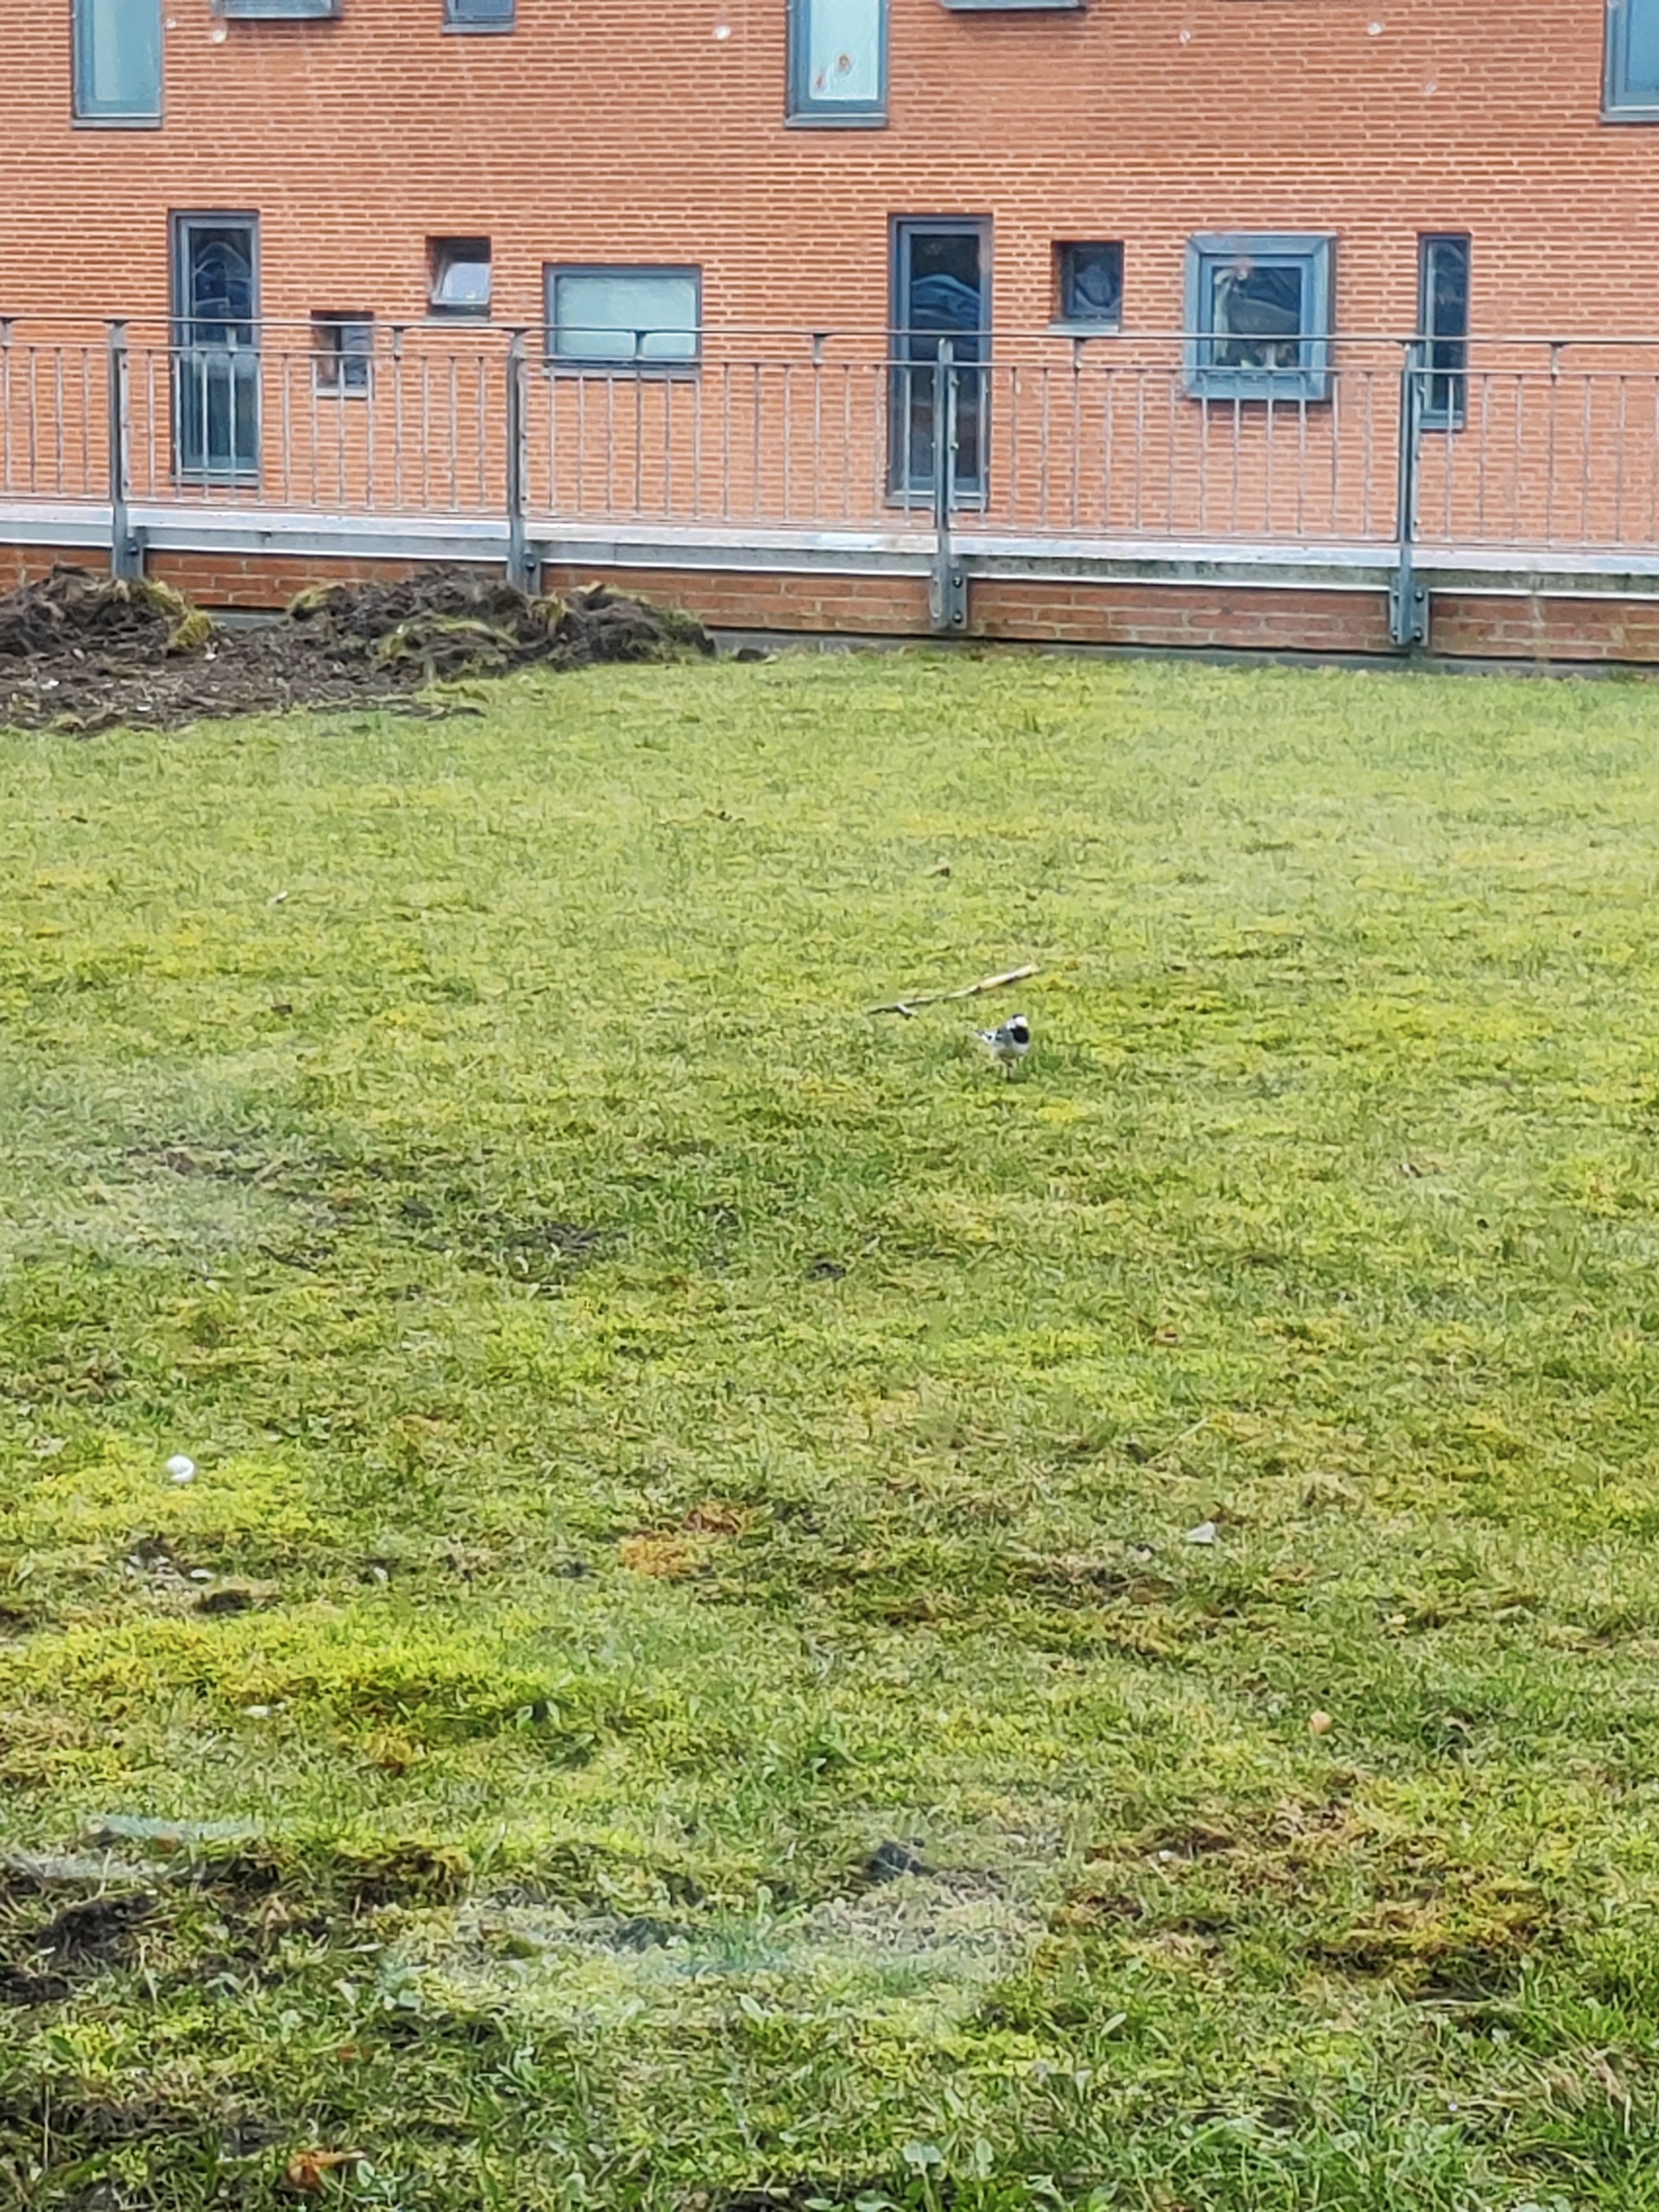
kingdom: Animalia
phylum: Chordata
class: Aves
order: Passeriformes
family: Motacillidae
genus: Motacilla
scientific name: Motacilla alba
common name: Hvid vipstjert
